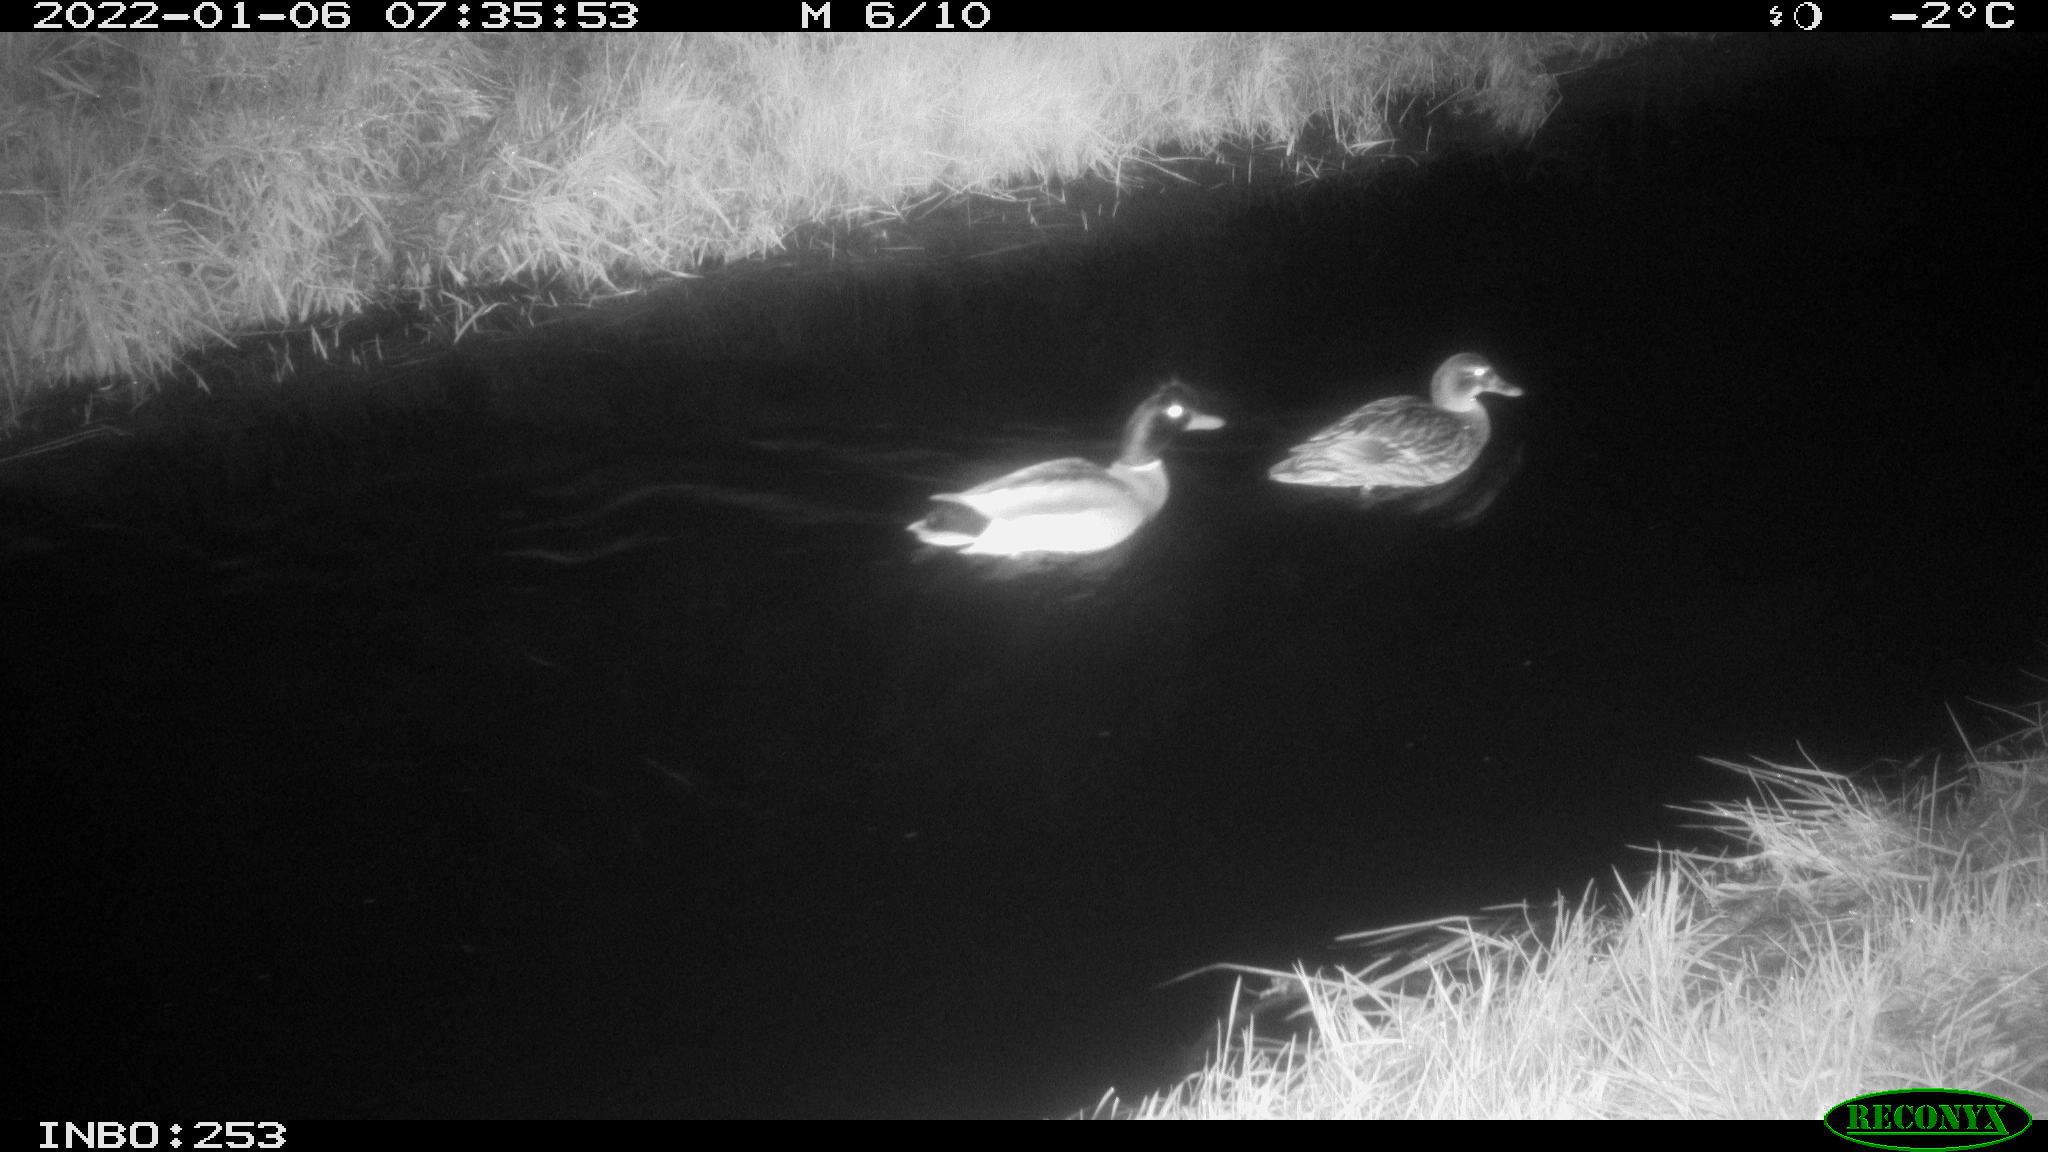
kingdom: Animalia
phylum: Chordata
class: Aves
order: Anseriformes
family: Anatidae
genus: Anas
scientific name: Anas
